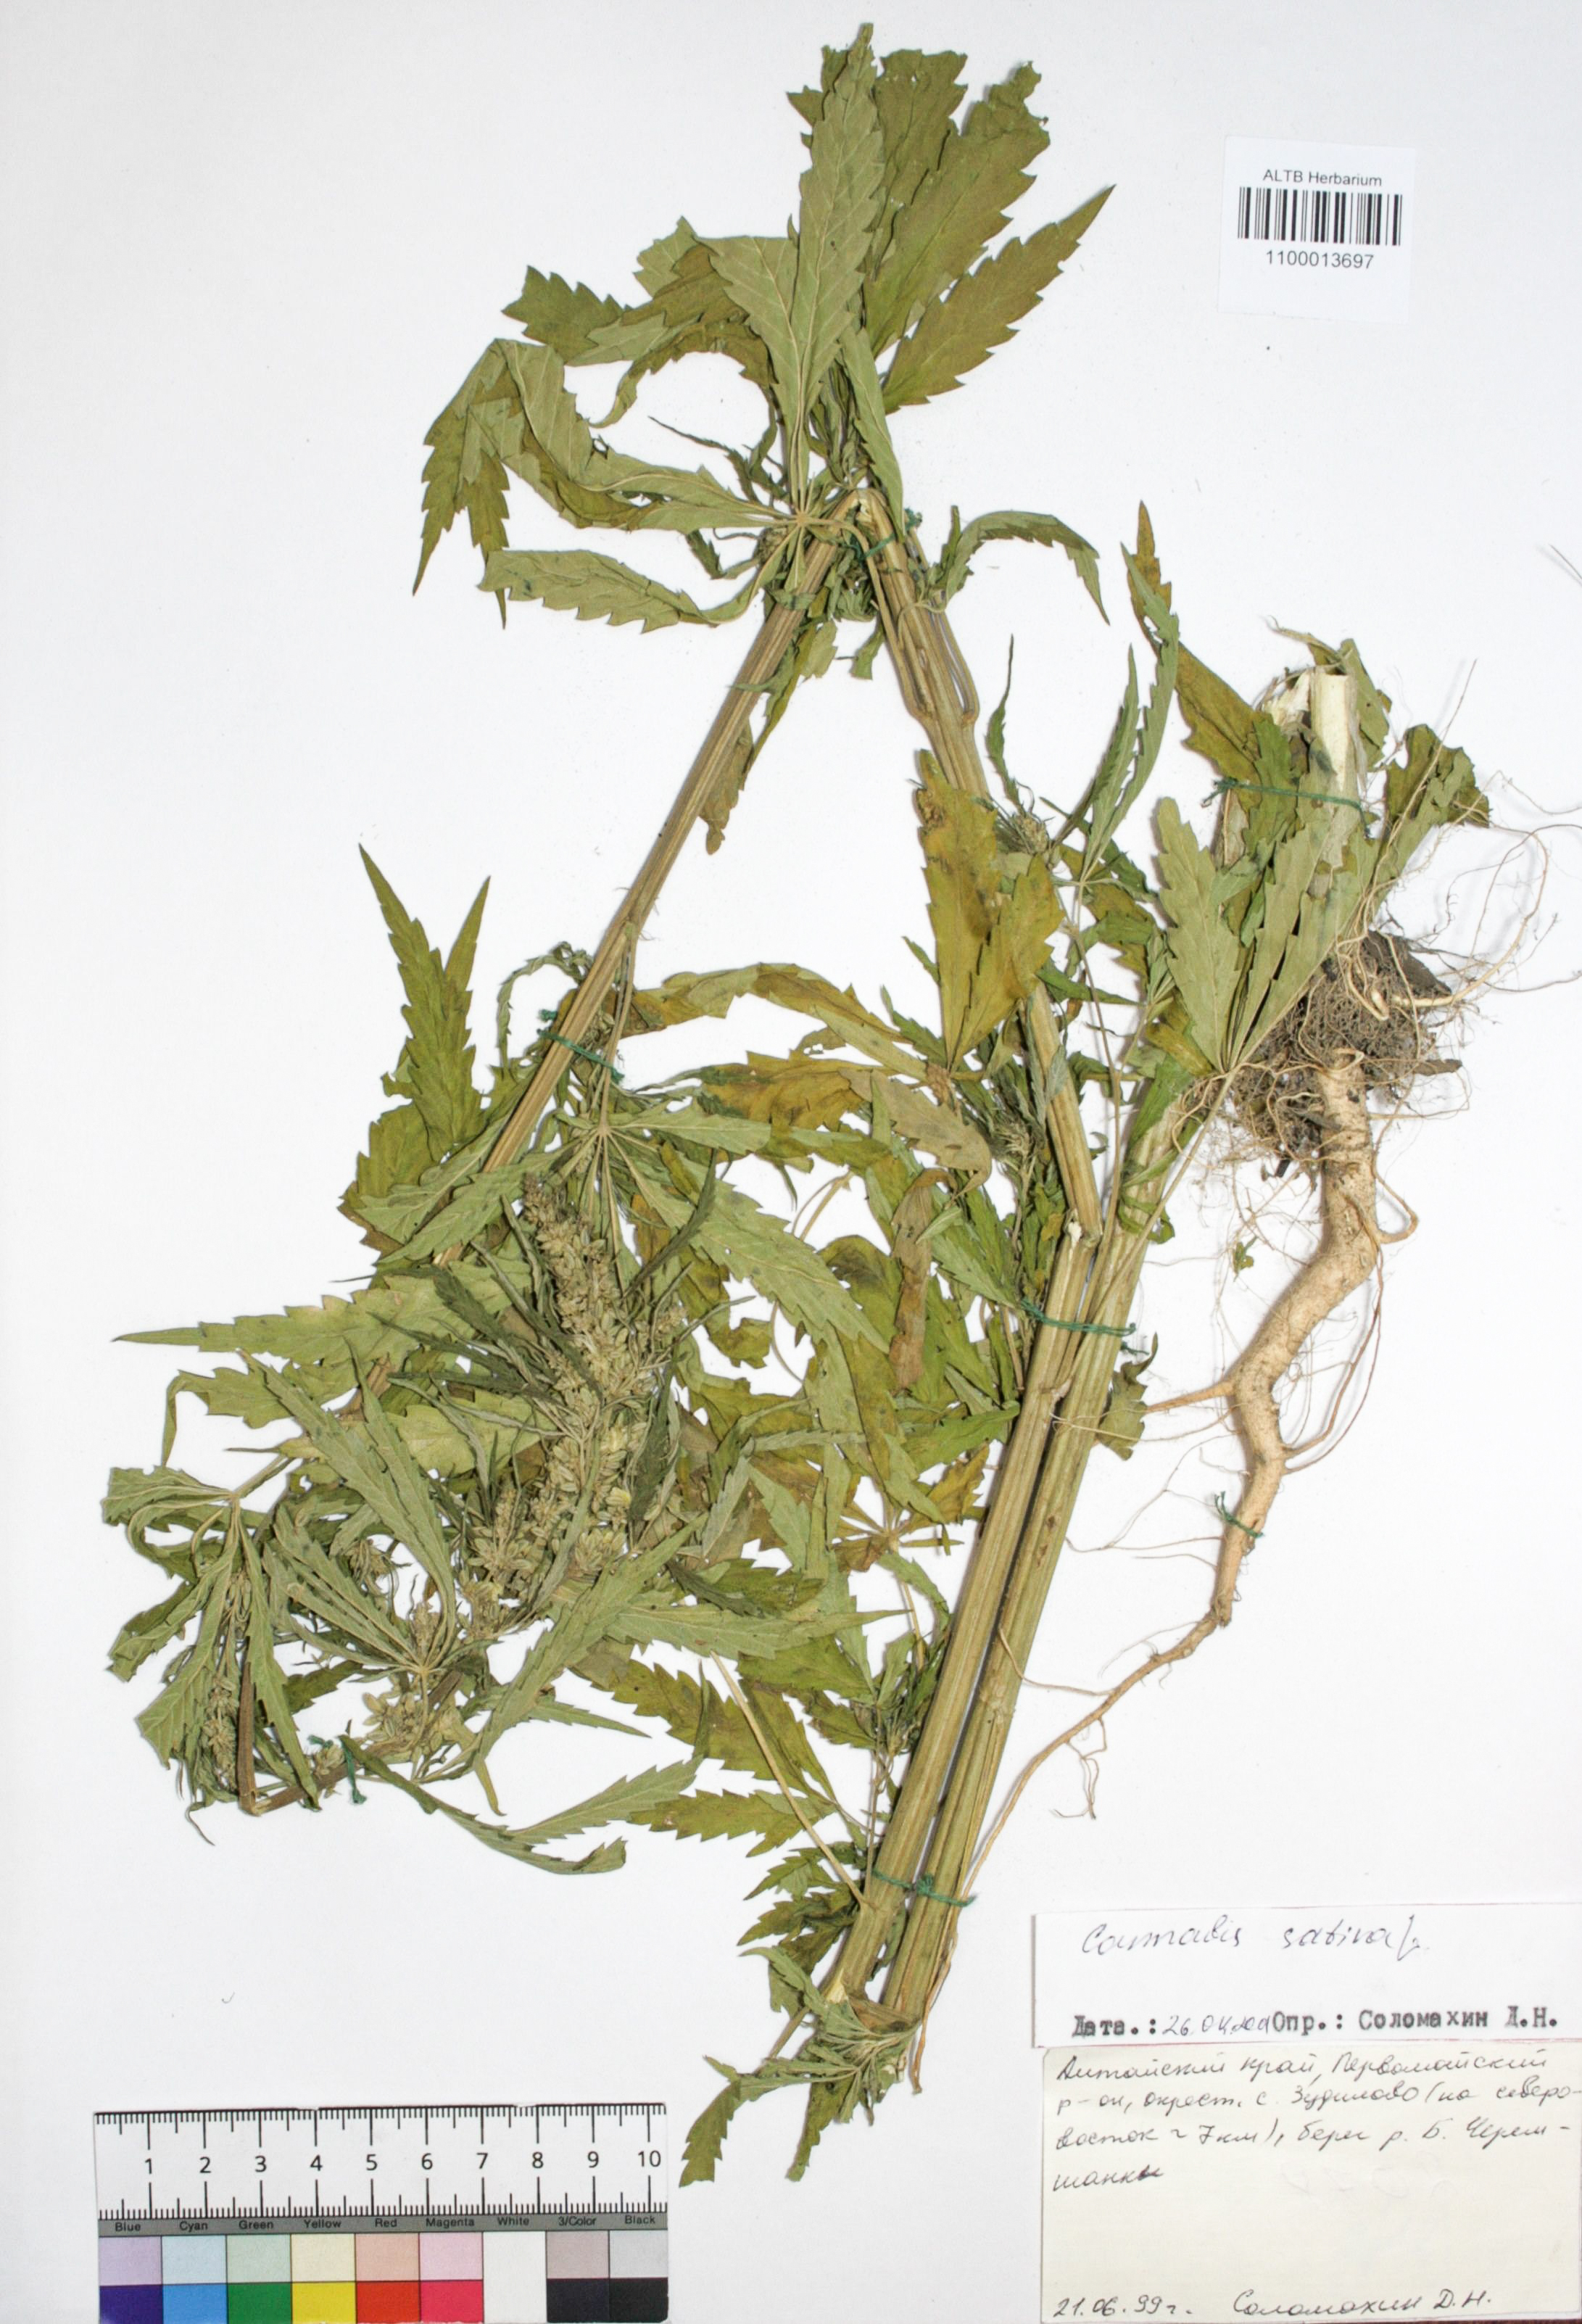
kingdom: Plantae
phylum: Tracheophyta
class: Magnoliopsida
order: Rosales
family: Cannabaceae
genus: Cannabis
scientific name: Cannabis sativa
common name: Hemp
